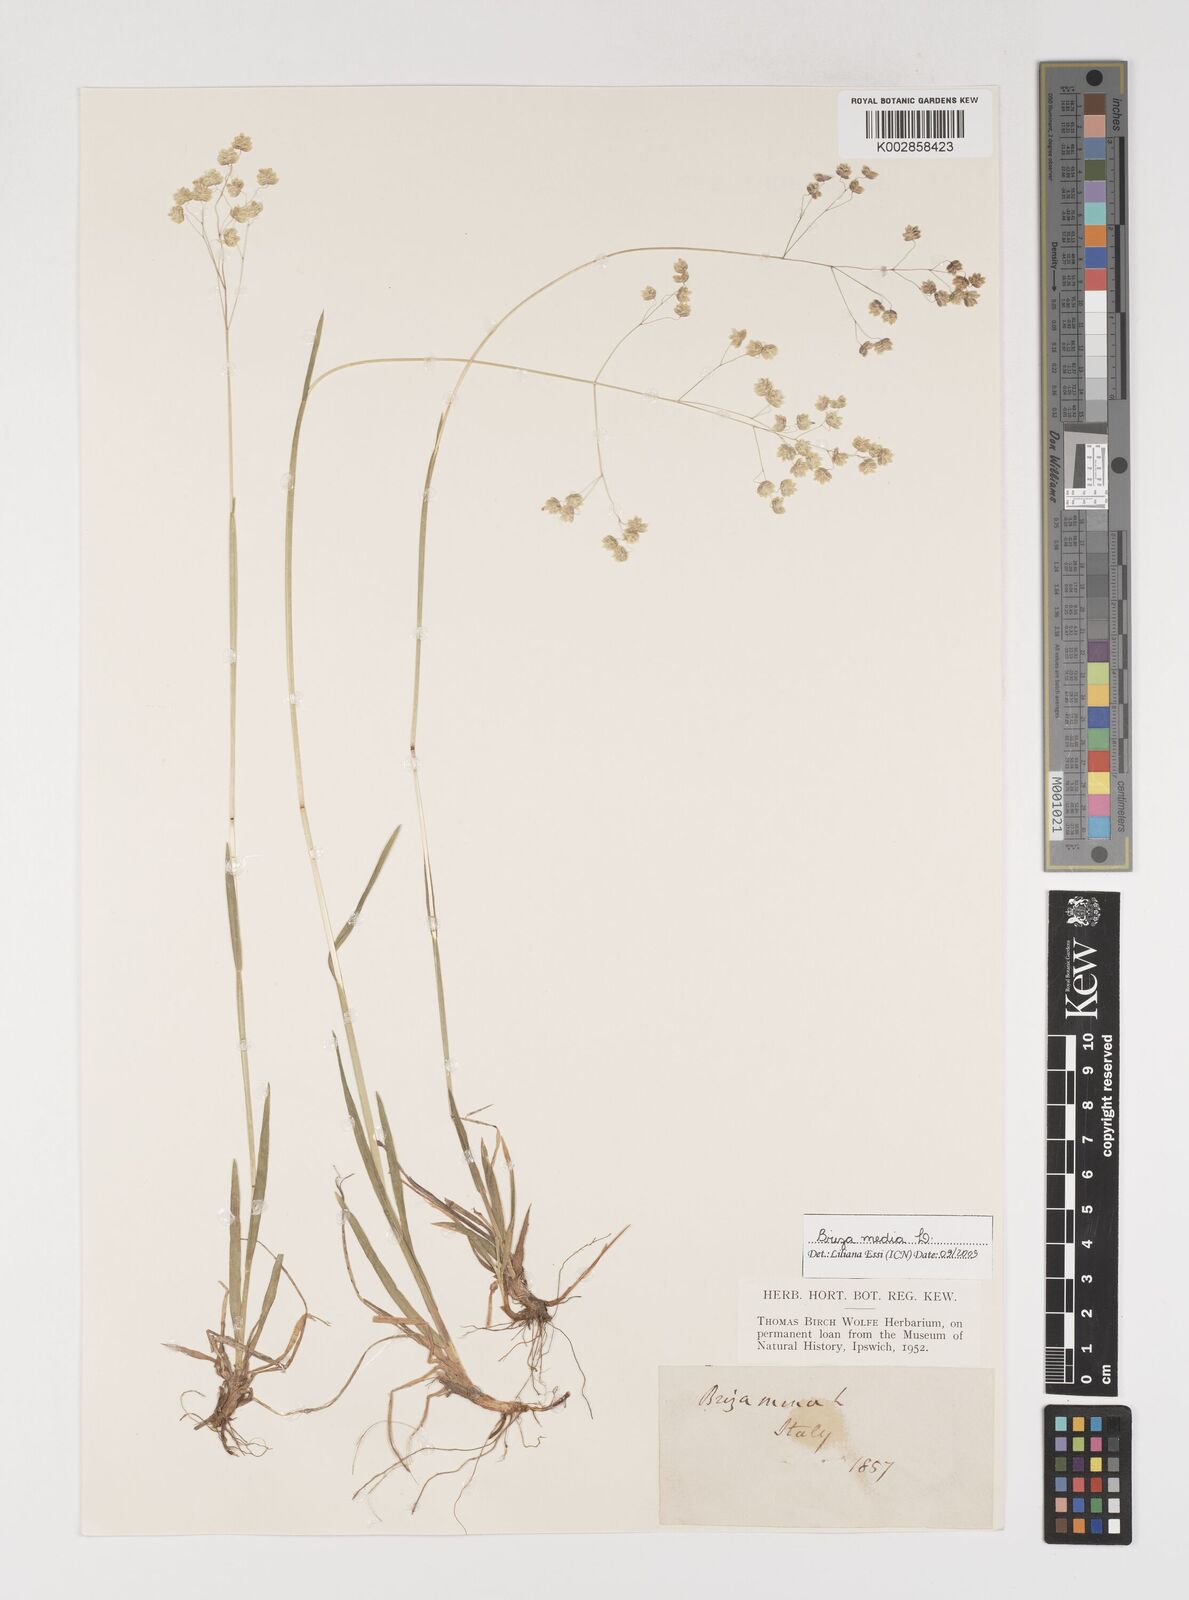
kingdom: Plantae
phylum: Tracheophyta
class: Liliopsida
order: Poales
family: Poaceae
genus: Briza
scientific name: Briza media
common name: Quaking grass
